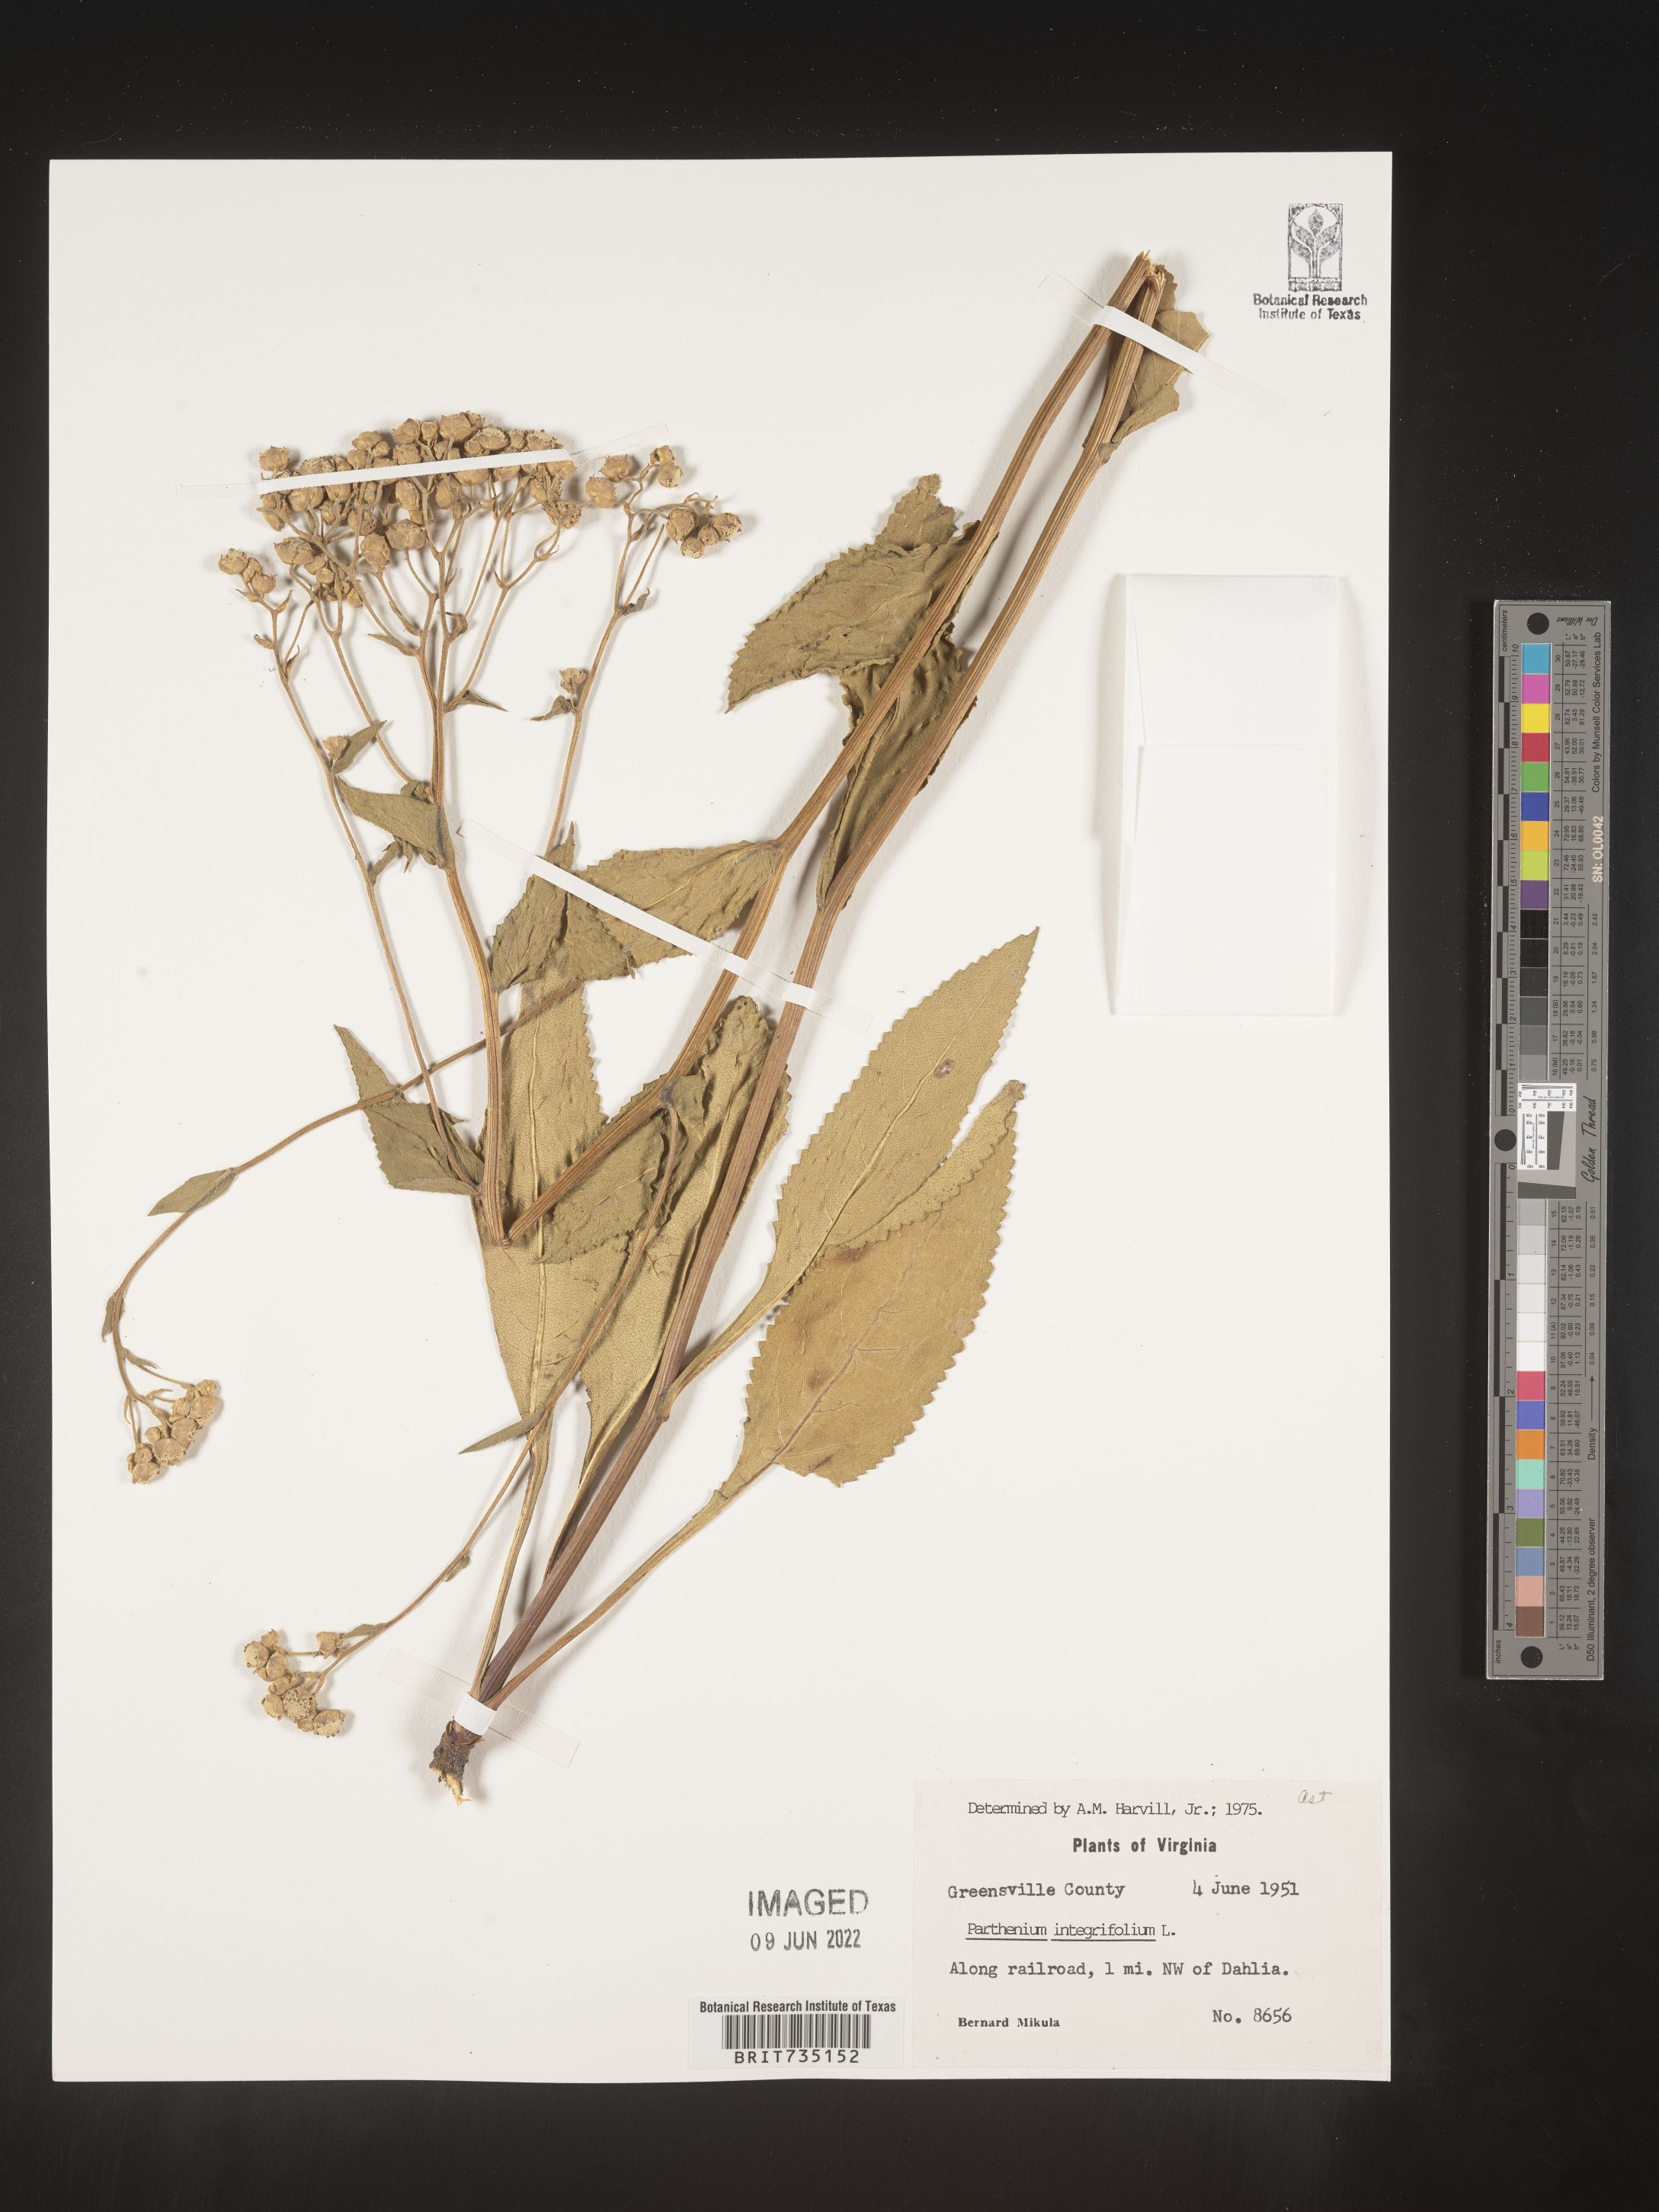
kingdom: Plantae
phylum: Tracheophyta
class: Magnoliopsida
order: Asterales
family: Asteraceae
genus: Parthenium
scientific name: Parthenium integrifolium
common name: American feverfew
